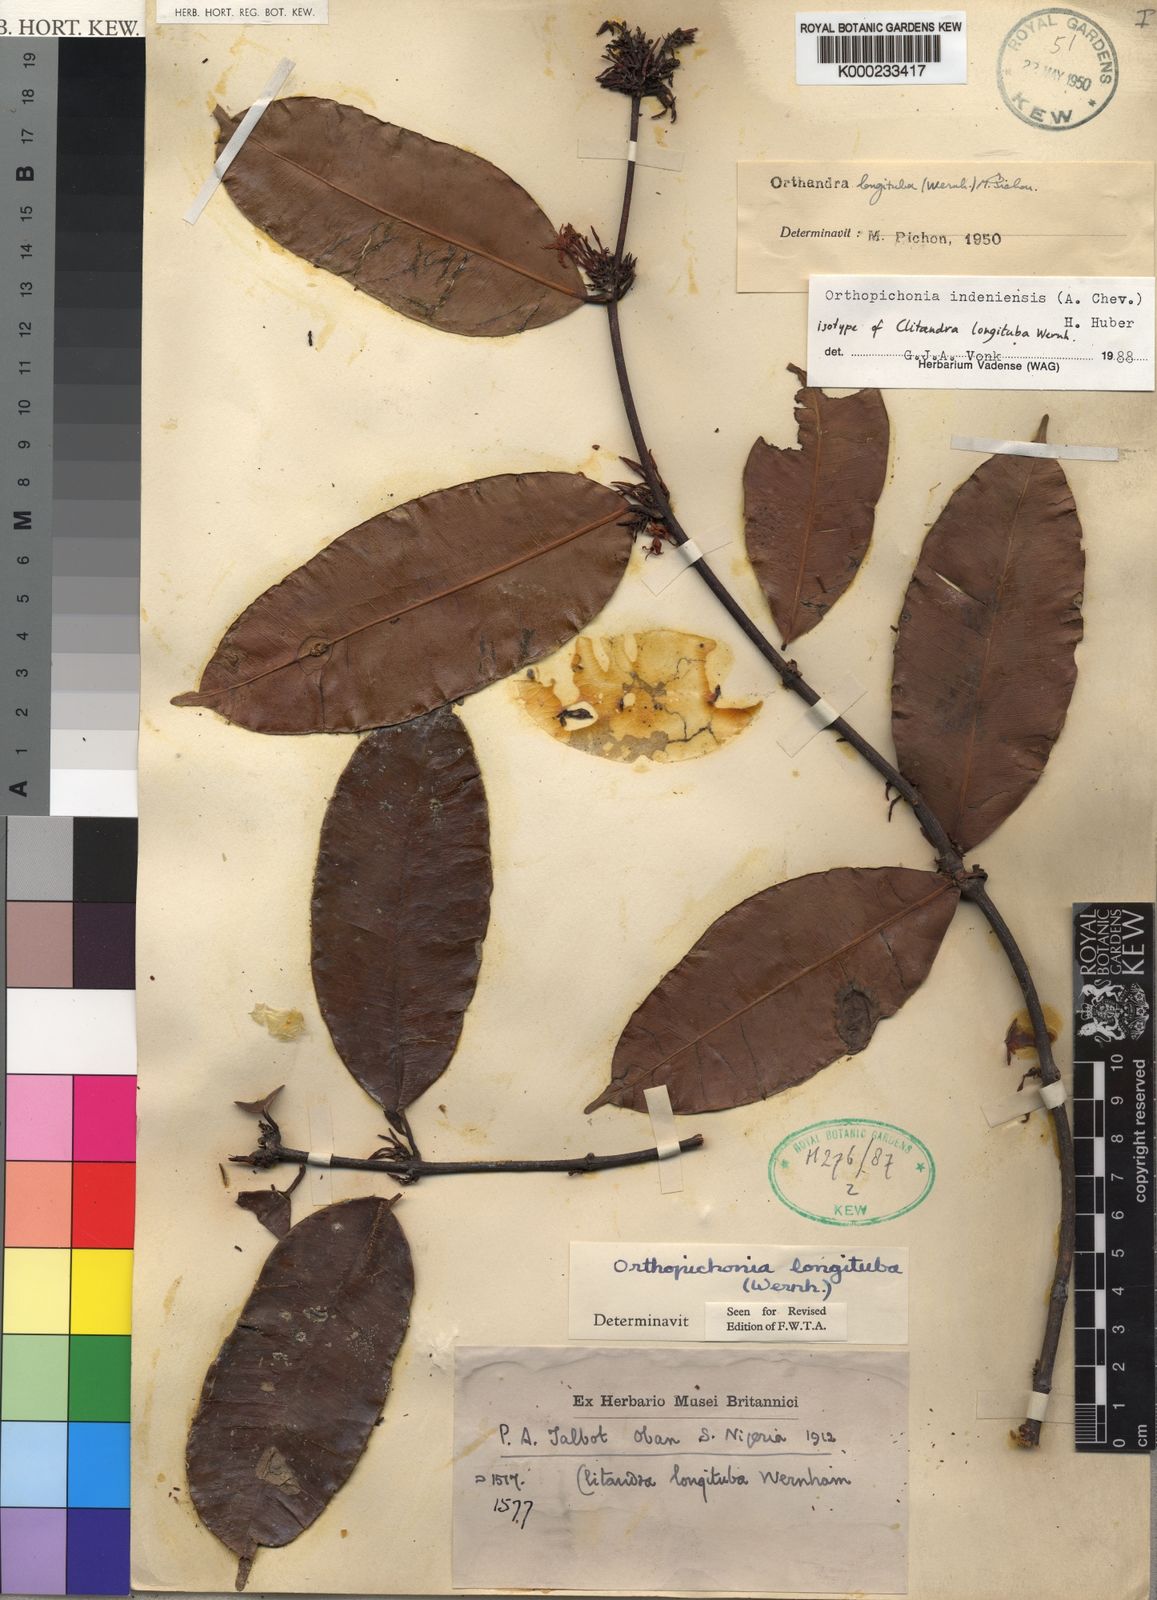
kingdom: Plantae
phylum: Tracheophyta
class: Magnoliopsida
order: Gentianales
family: Apocynaceae
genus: Orthopichonia
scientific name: Orthopichonia indeniensis
